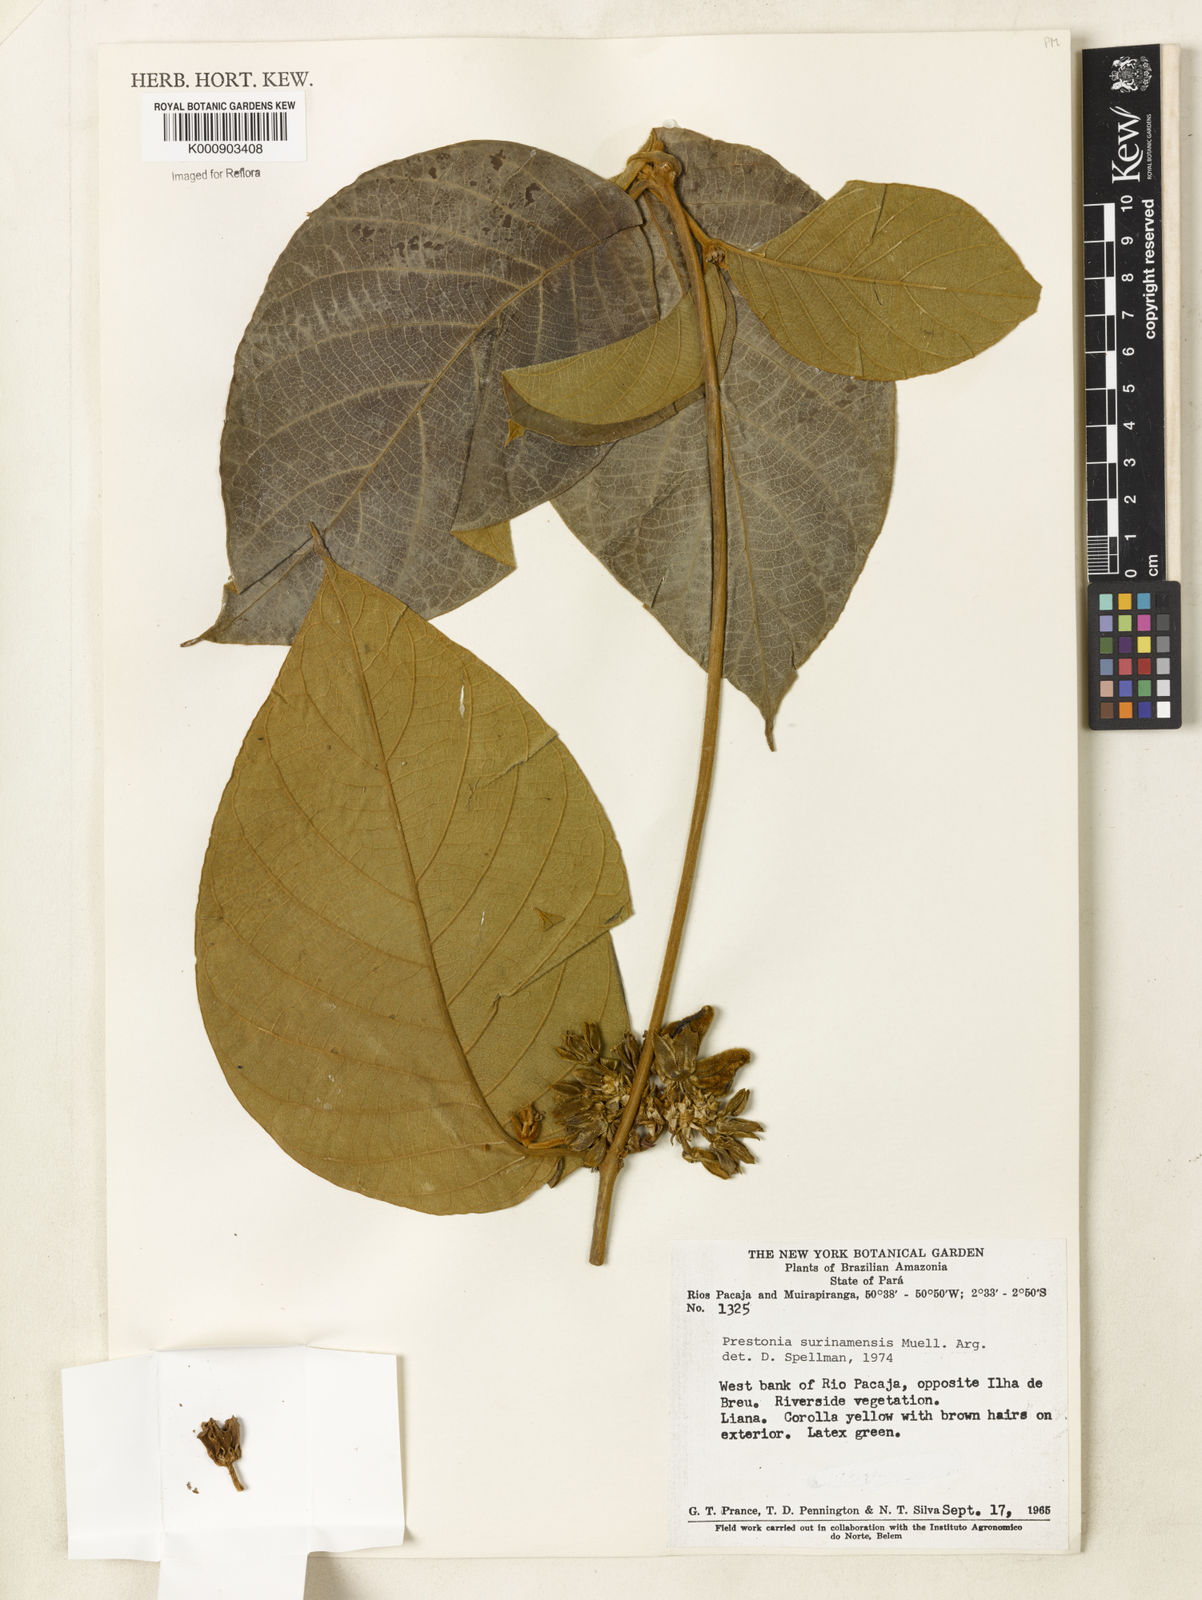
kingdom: Plantae
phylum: Tracheophyta
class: Magnoliopsida
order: Gentianales
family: Apocynaceae
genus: Prestonia
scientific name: Prestonia
